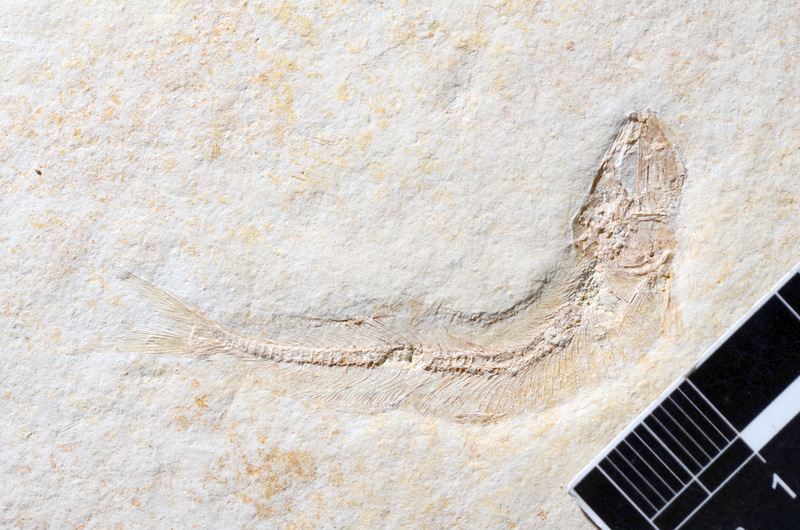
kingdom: Animalia
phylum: Chordata
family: Allothrissopidae
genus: Allothrissops
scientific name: Allothrissops mesogaster
